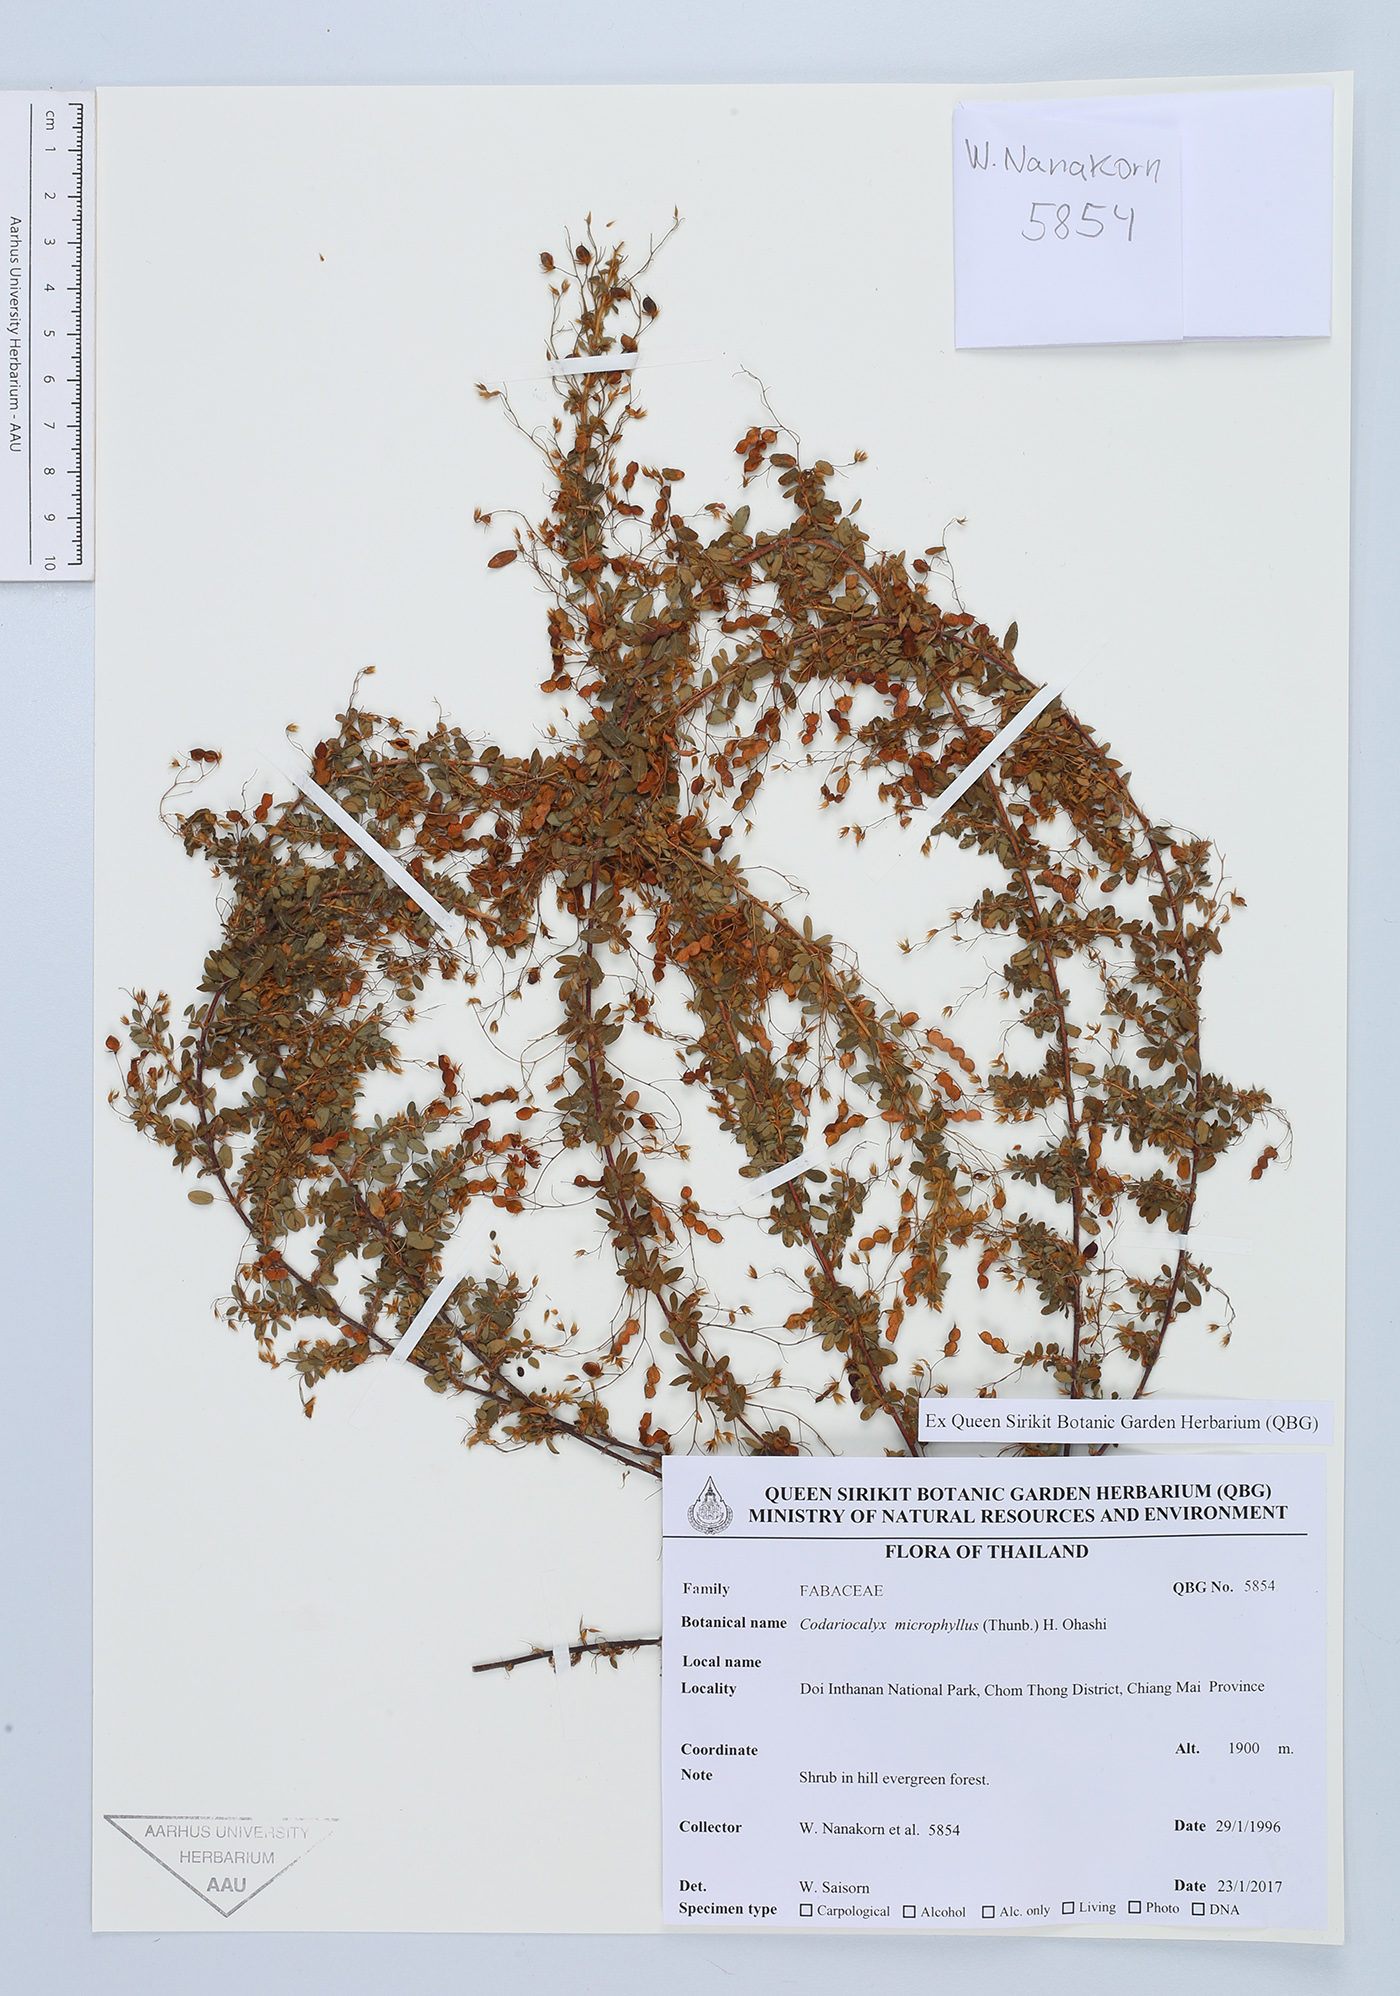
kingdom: Plantae
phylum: Tracheophyta
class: Magnoliopsida
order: Fabales
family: Fabaceae
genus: Leptodesmia
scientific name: Leptodesmia microphylla
